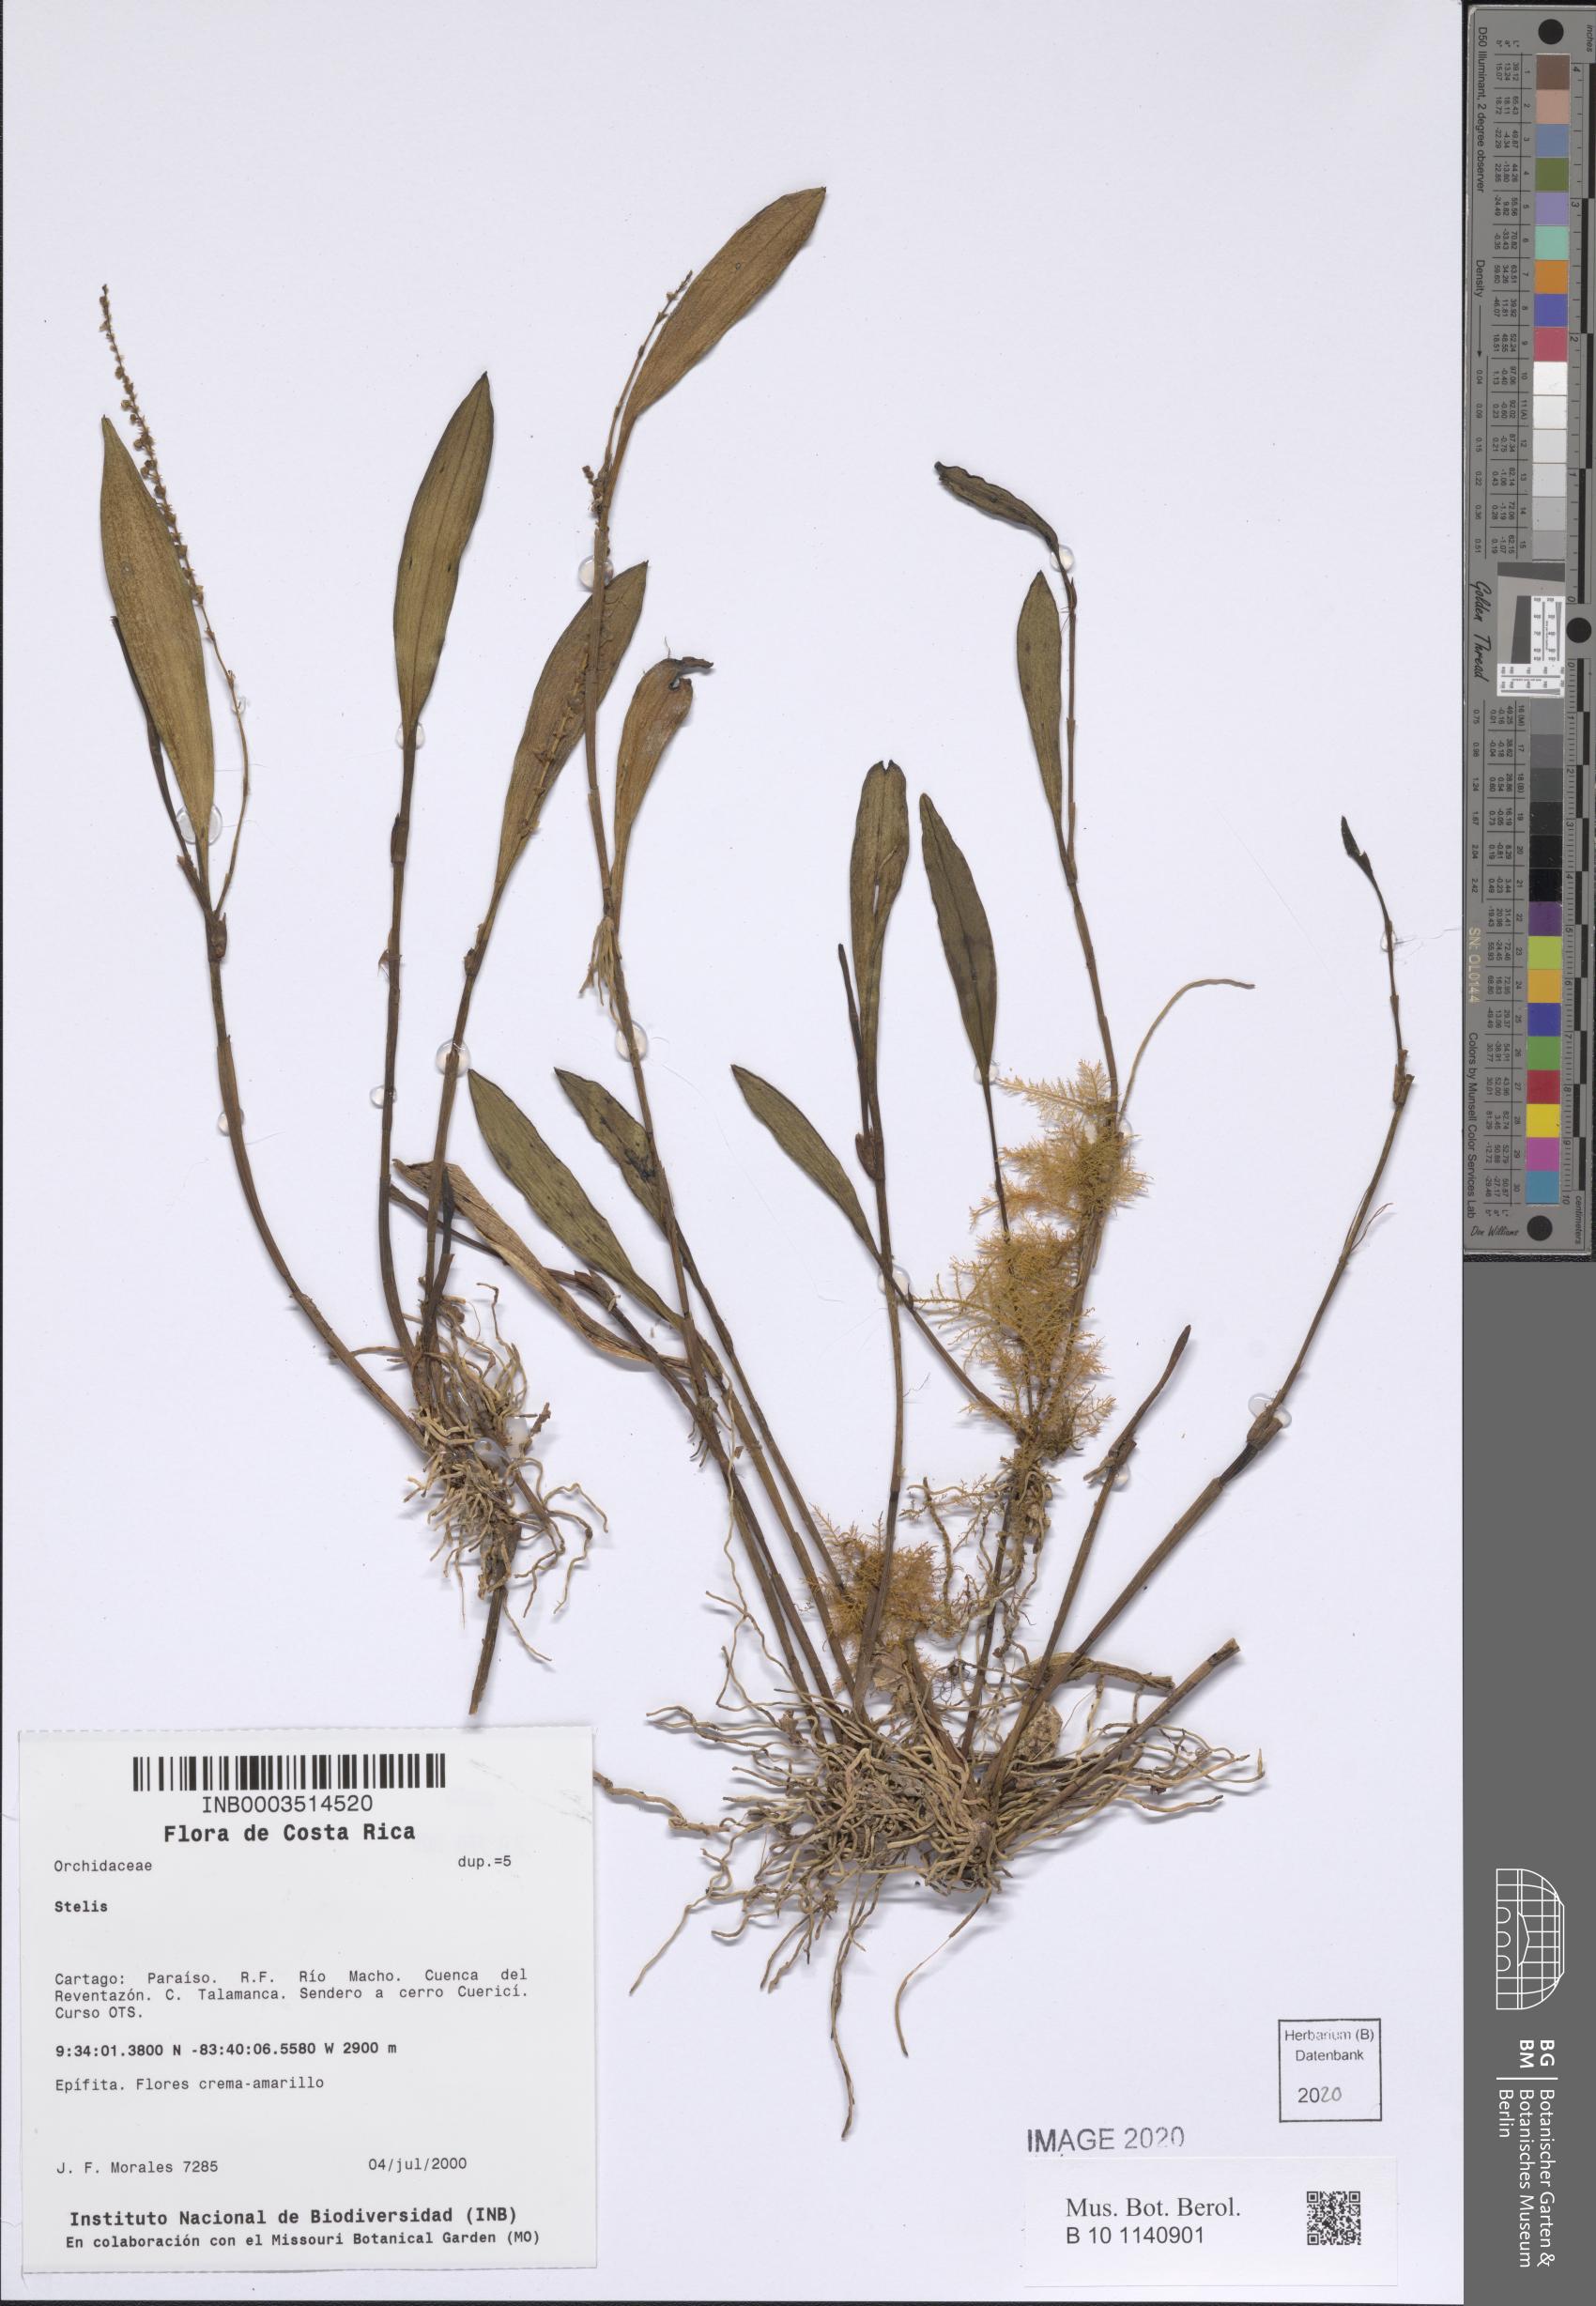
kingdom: Plantae
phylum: Tracheophyta
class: Liliopsida
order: Asparagales
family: Orchidaceae
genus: Stelis
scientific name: Stelis
